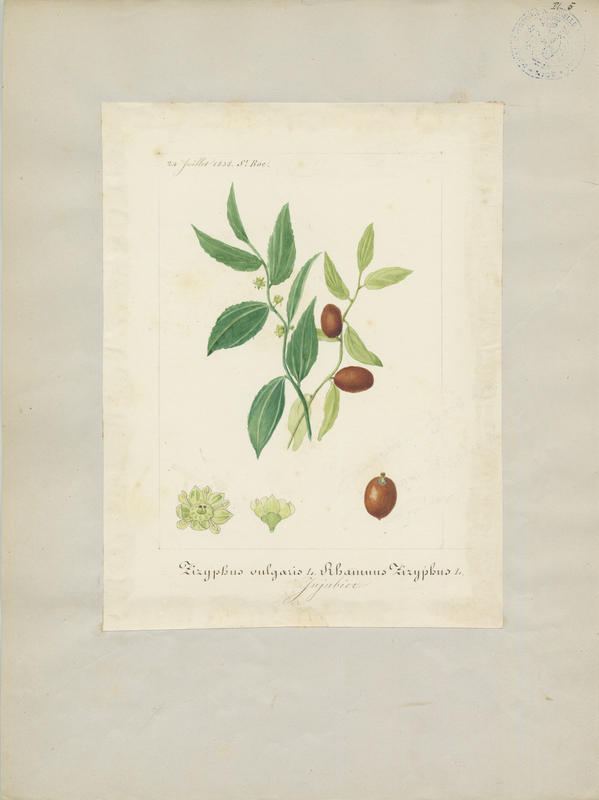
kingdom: Plantae
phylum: Tracheophyta
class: Magnoliopsida
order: Rosales
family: Rhamnaceae
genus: Ziziphus
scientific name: Ziziphus jujuba
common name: Jujube red date
